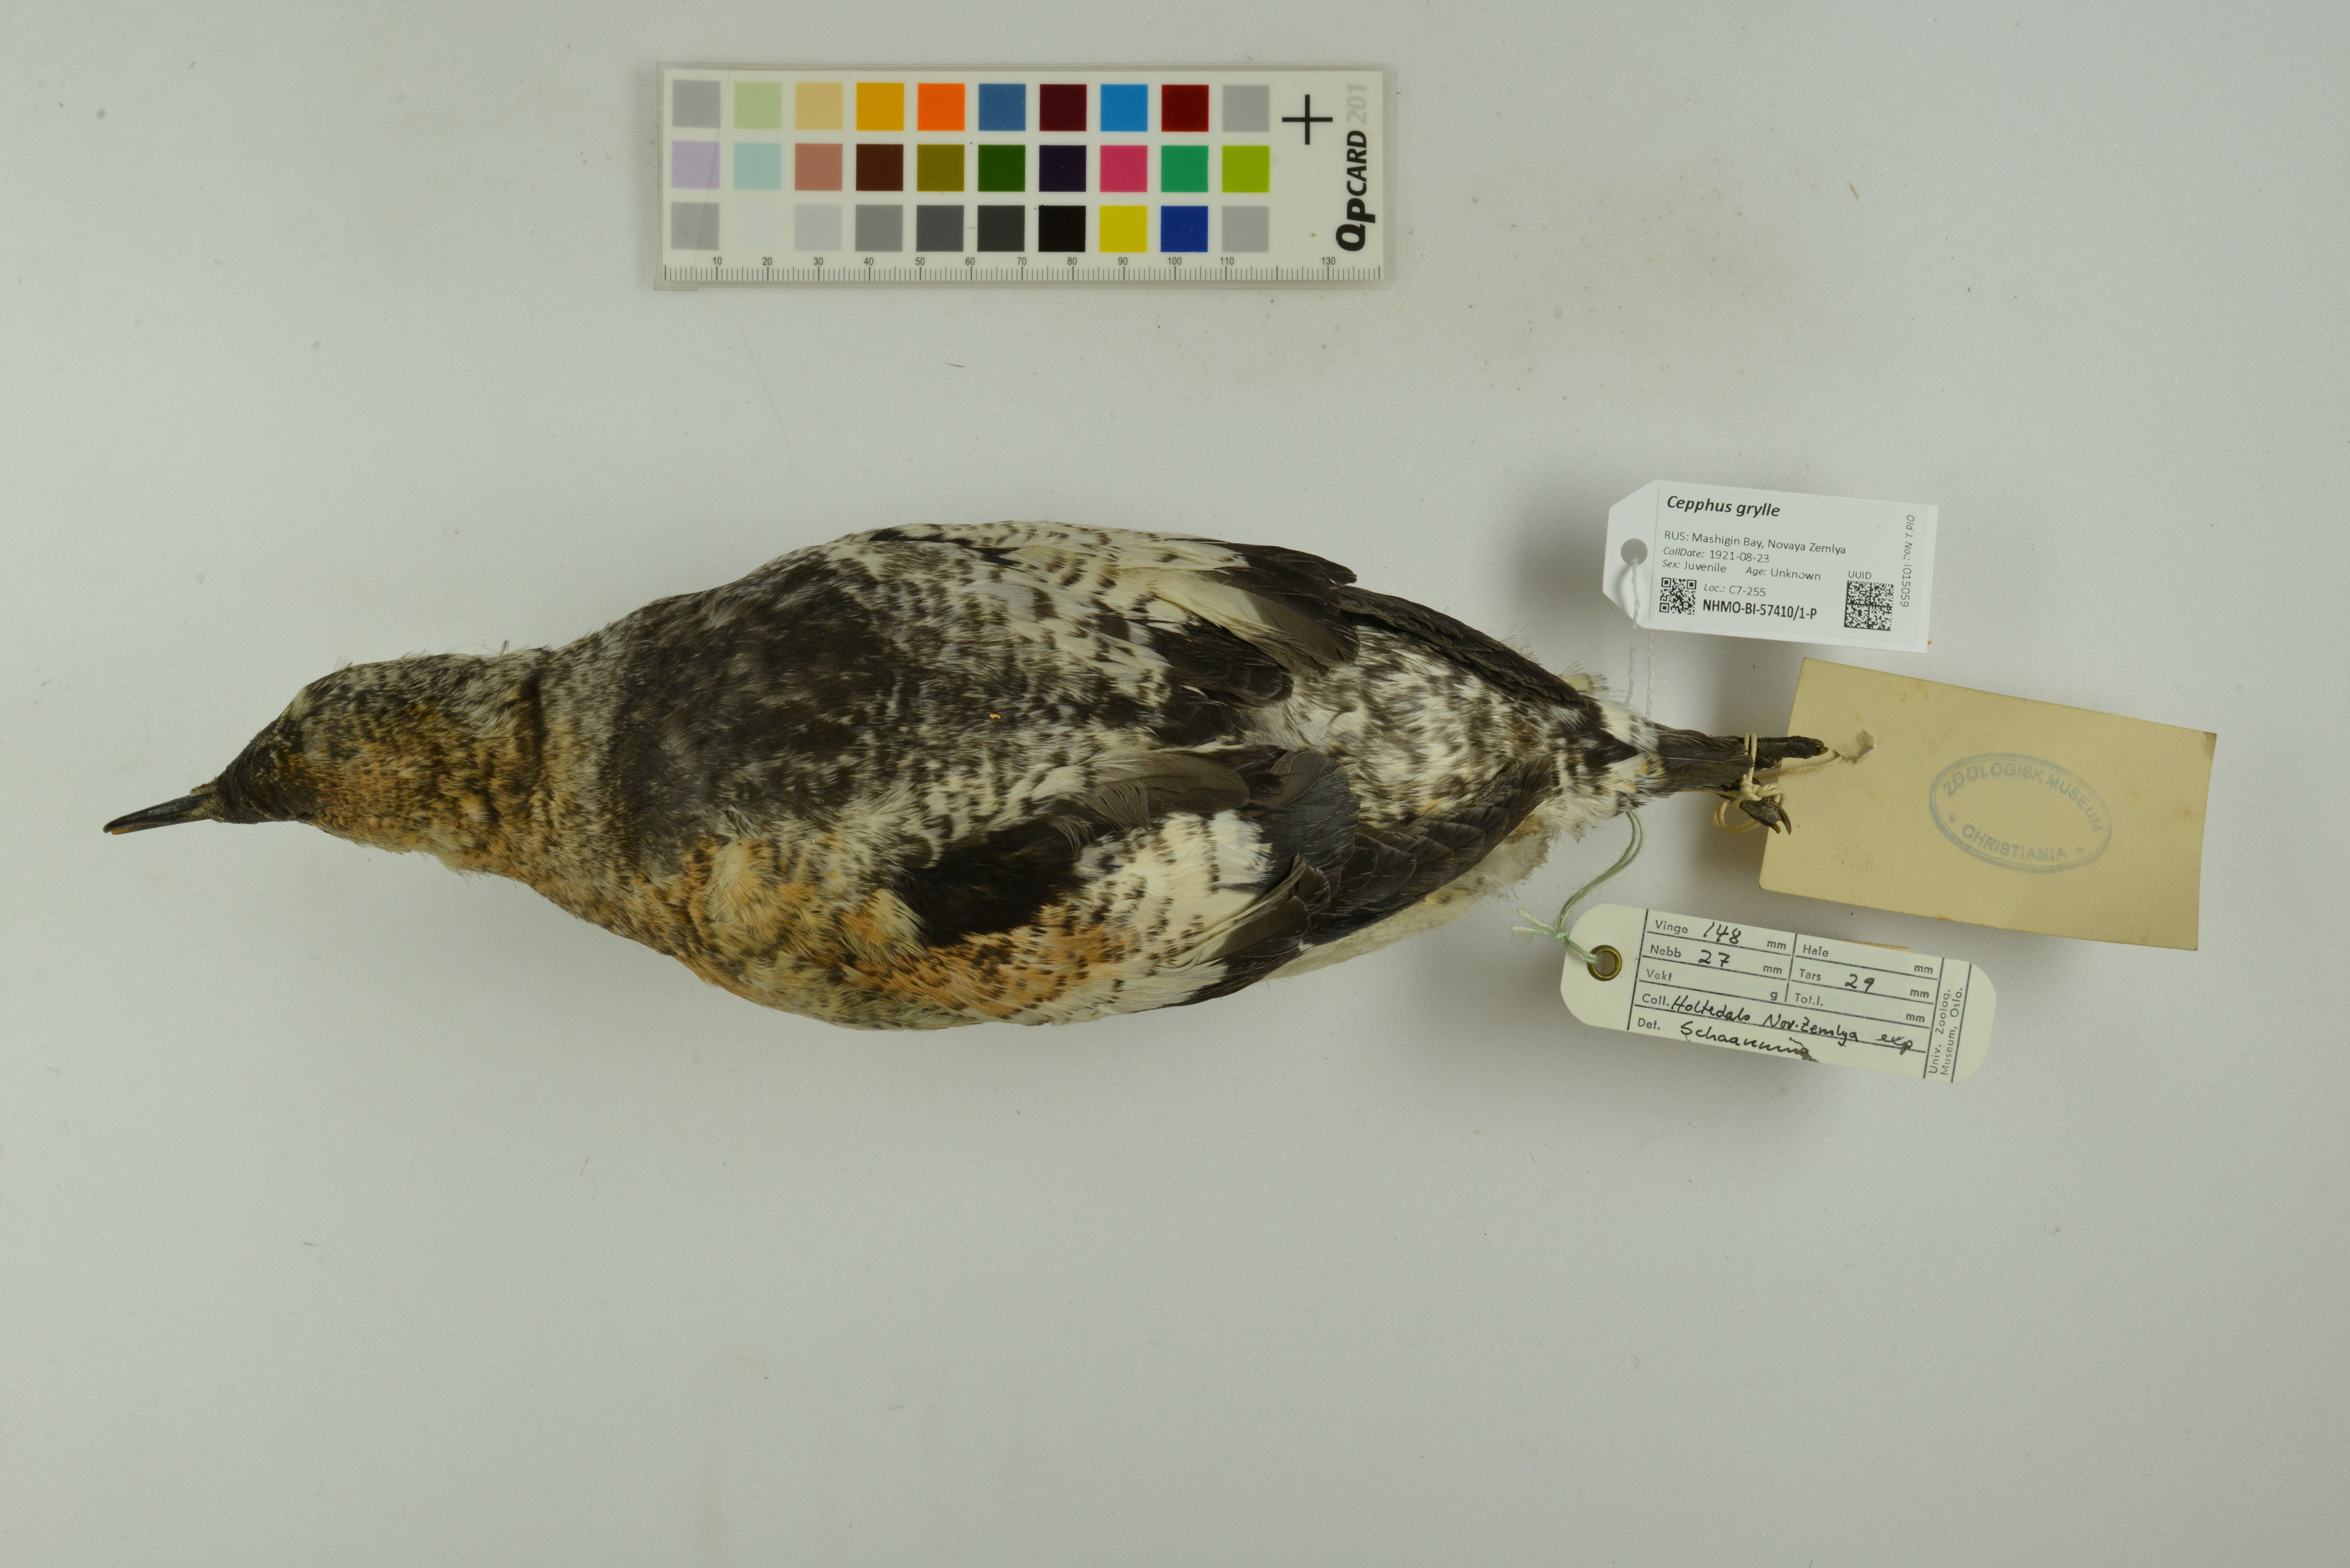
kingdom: Animalia
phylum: Chordata
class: Aves
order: Charadriiformes
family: Alcidae
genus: Cepphus
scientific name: Cepphus grylle
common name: Black guillemot
